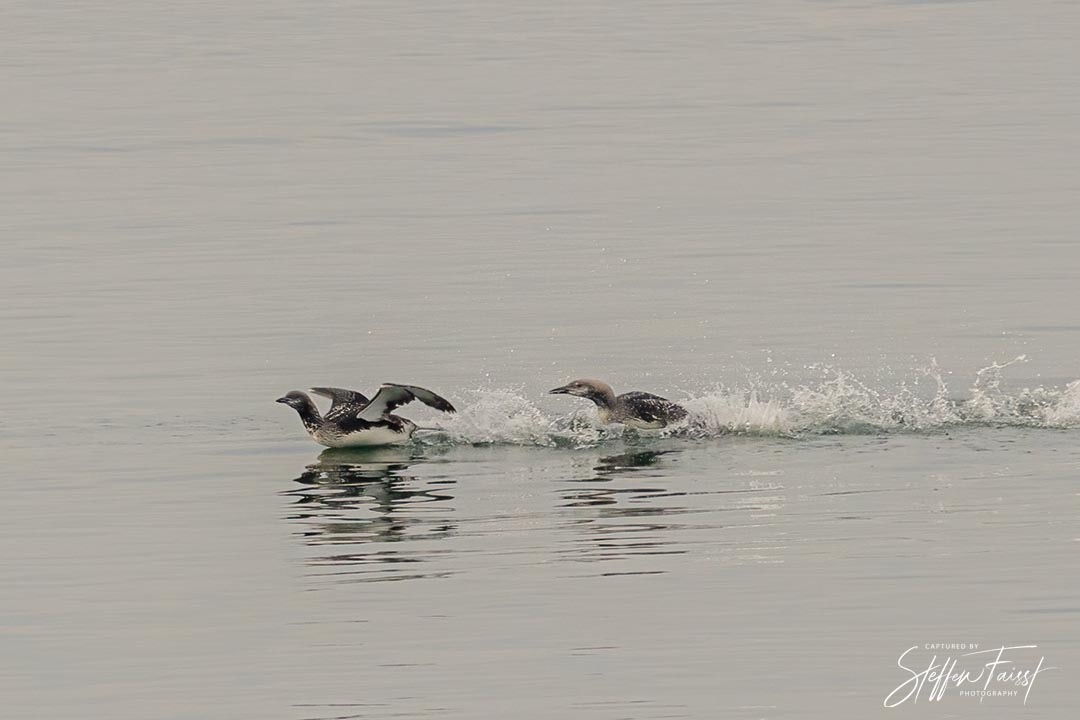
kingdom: Animalia
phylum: Chordata
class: Aves
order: Gaviiformes
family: Gaviidae
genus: Gavia
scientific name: Gavia arctica
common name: Sortstrubet lom
